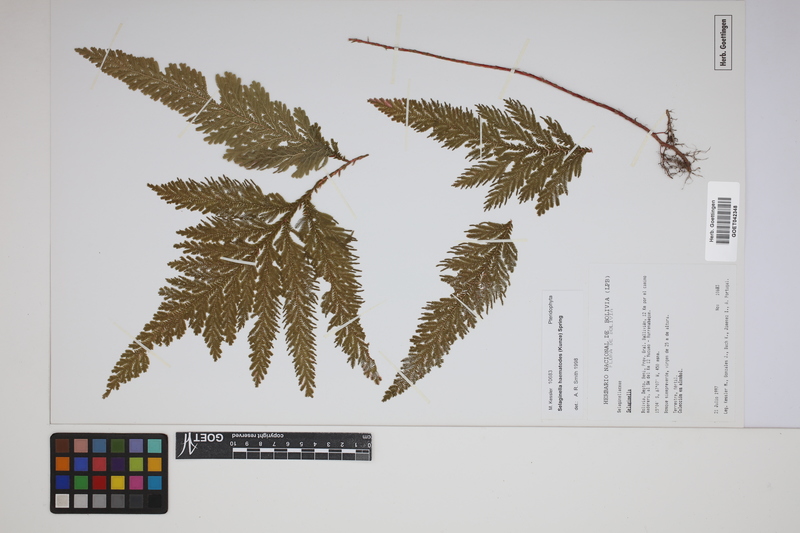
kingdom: Plantae
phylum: Tracheophyta
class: Lycopodiopsida
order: Selaginellales
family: Selaginellaceae
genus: Selaginella
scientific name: Selaginella haematodes
